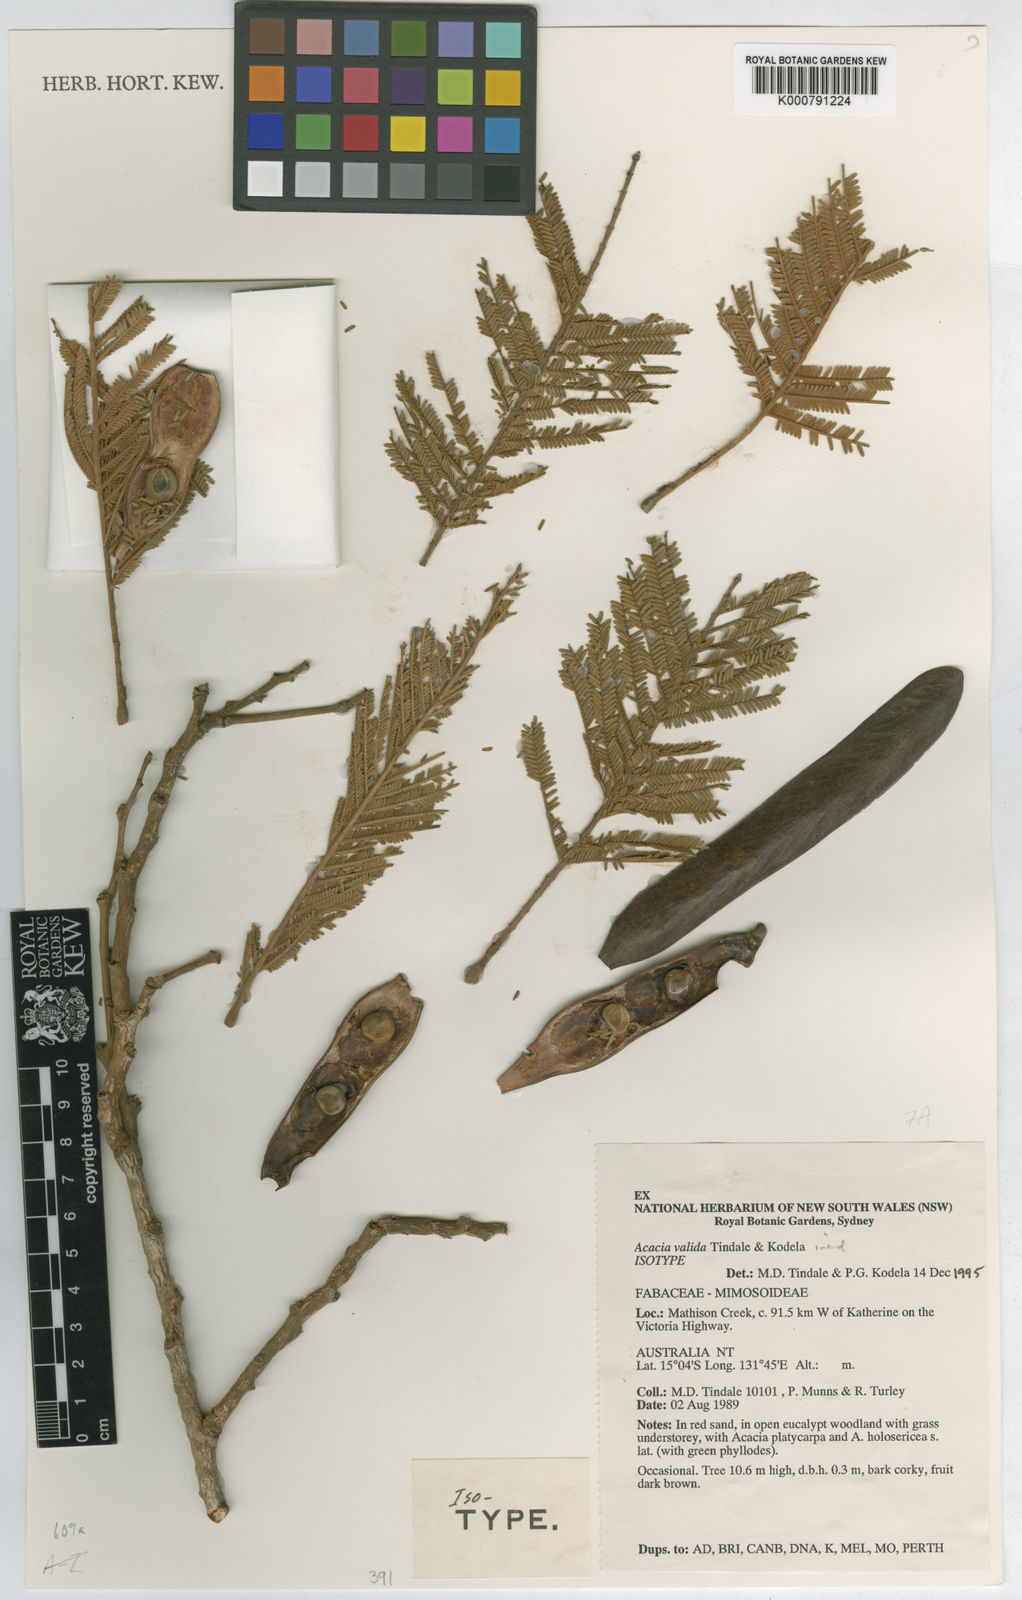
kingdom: Plantae
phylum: Tracheophyta
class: Magnoliopsida
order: Fabales
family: Fabaceae
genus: Vachellia
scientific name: Vachellia valida
